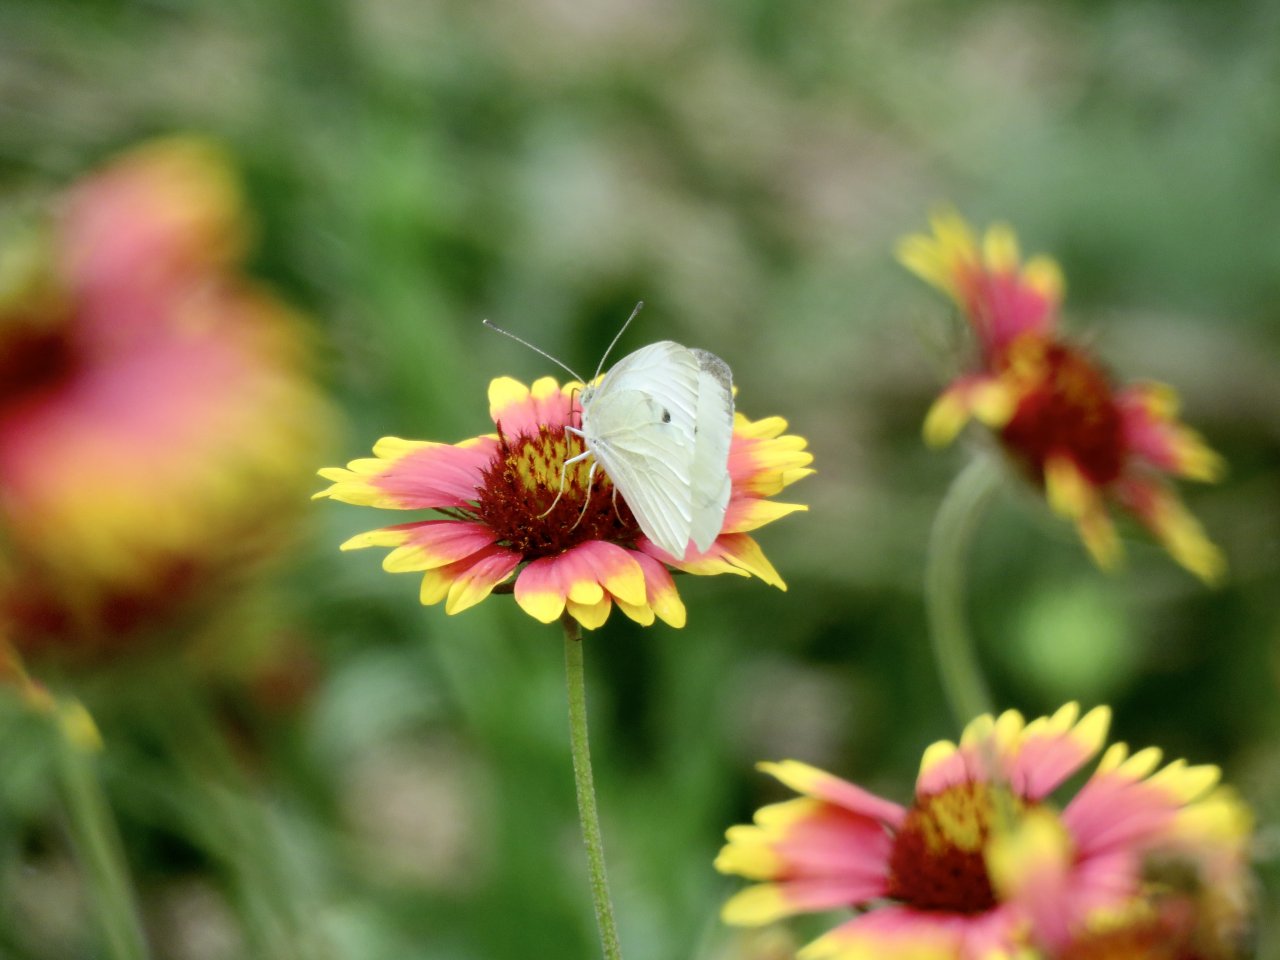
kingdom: Animalia
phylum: Arthropoda
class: Insecta
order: Lepidoptera
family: Pieridae
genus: Pieris
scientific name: Pieris rapae
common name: Cabbage White
